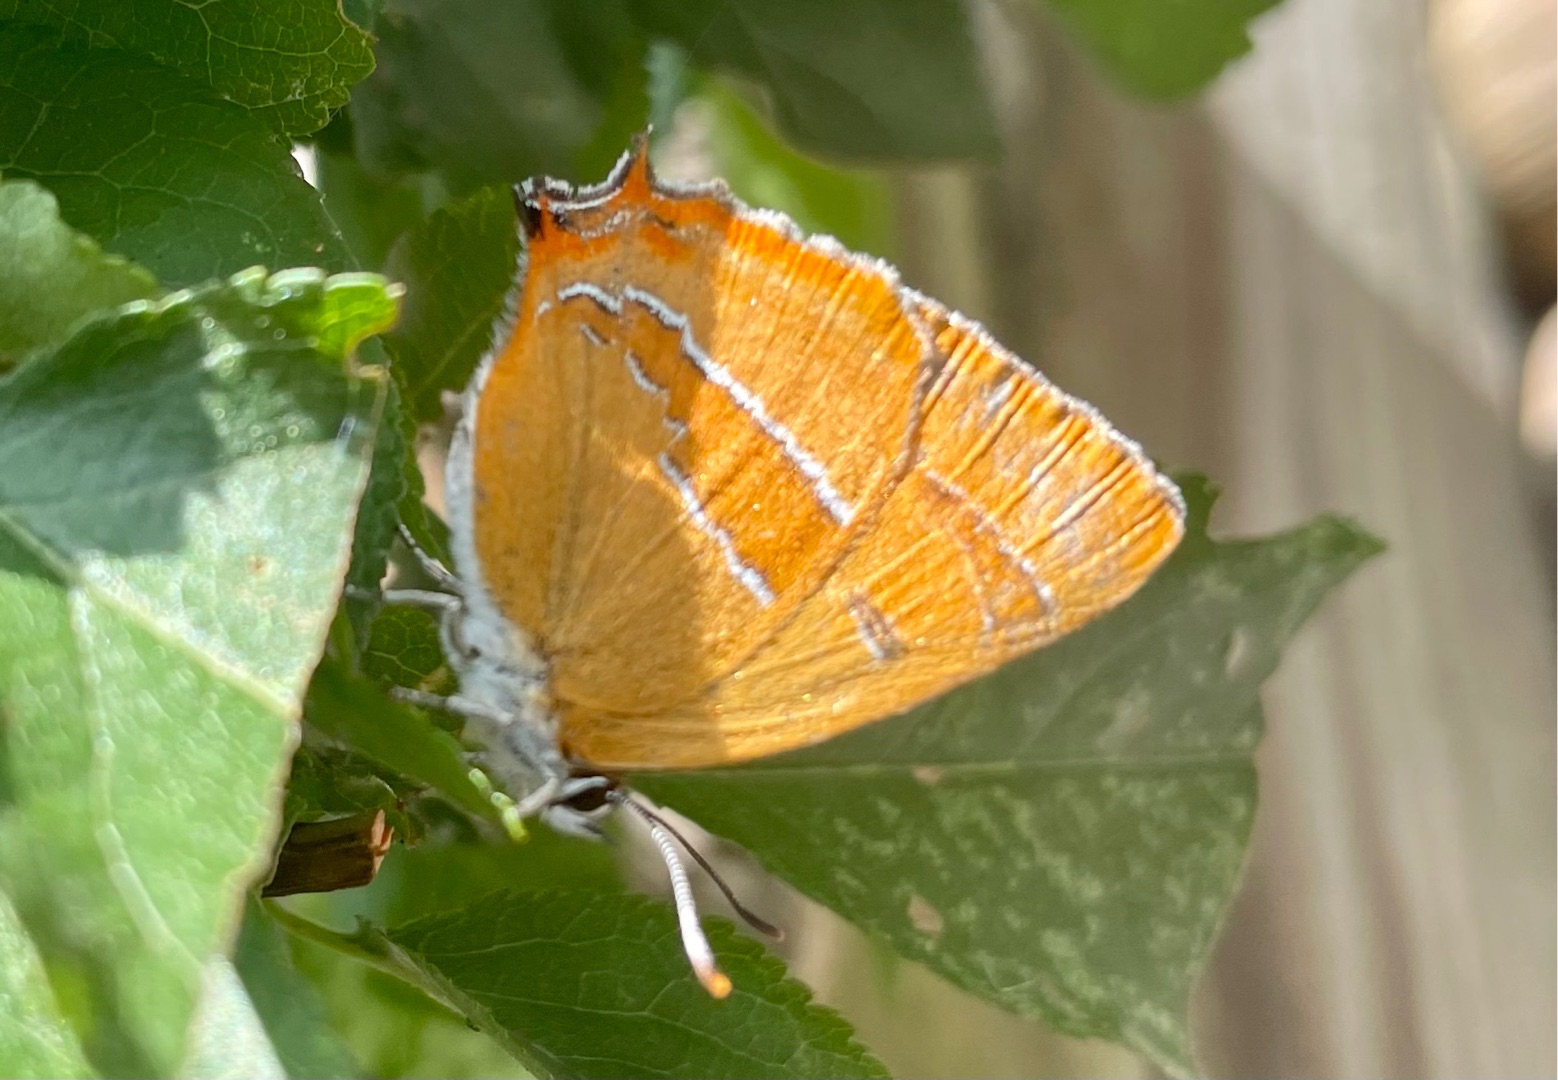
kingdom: Animalia
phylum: Arthropoda
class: Insecta
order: Lepidoptera
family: Lycaenidae
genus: Thecla
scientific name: Thecla betulae
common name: Guldhale
